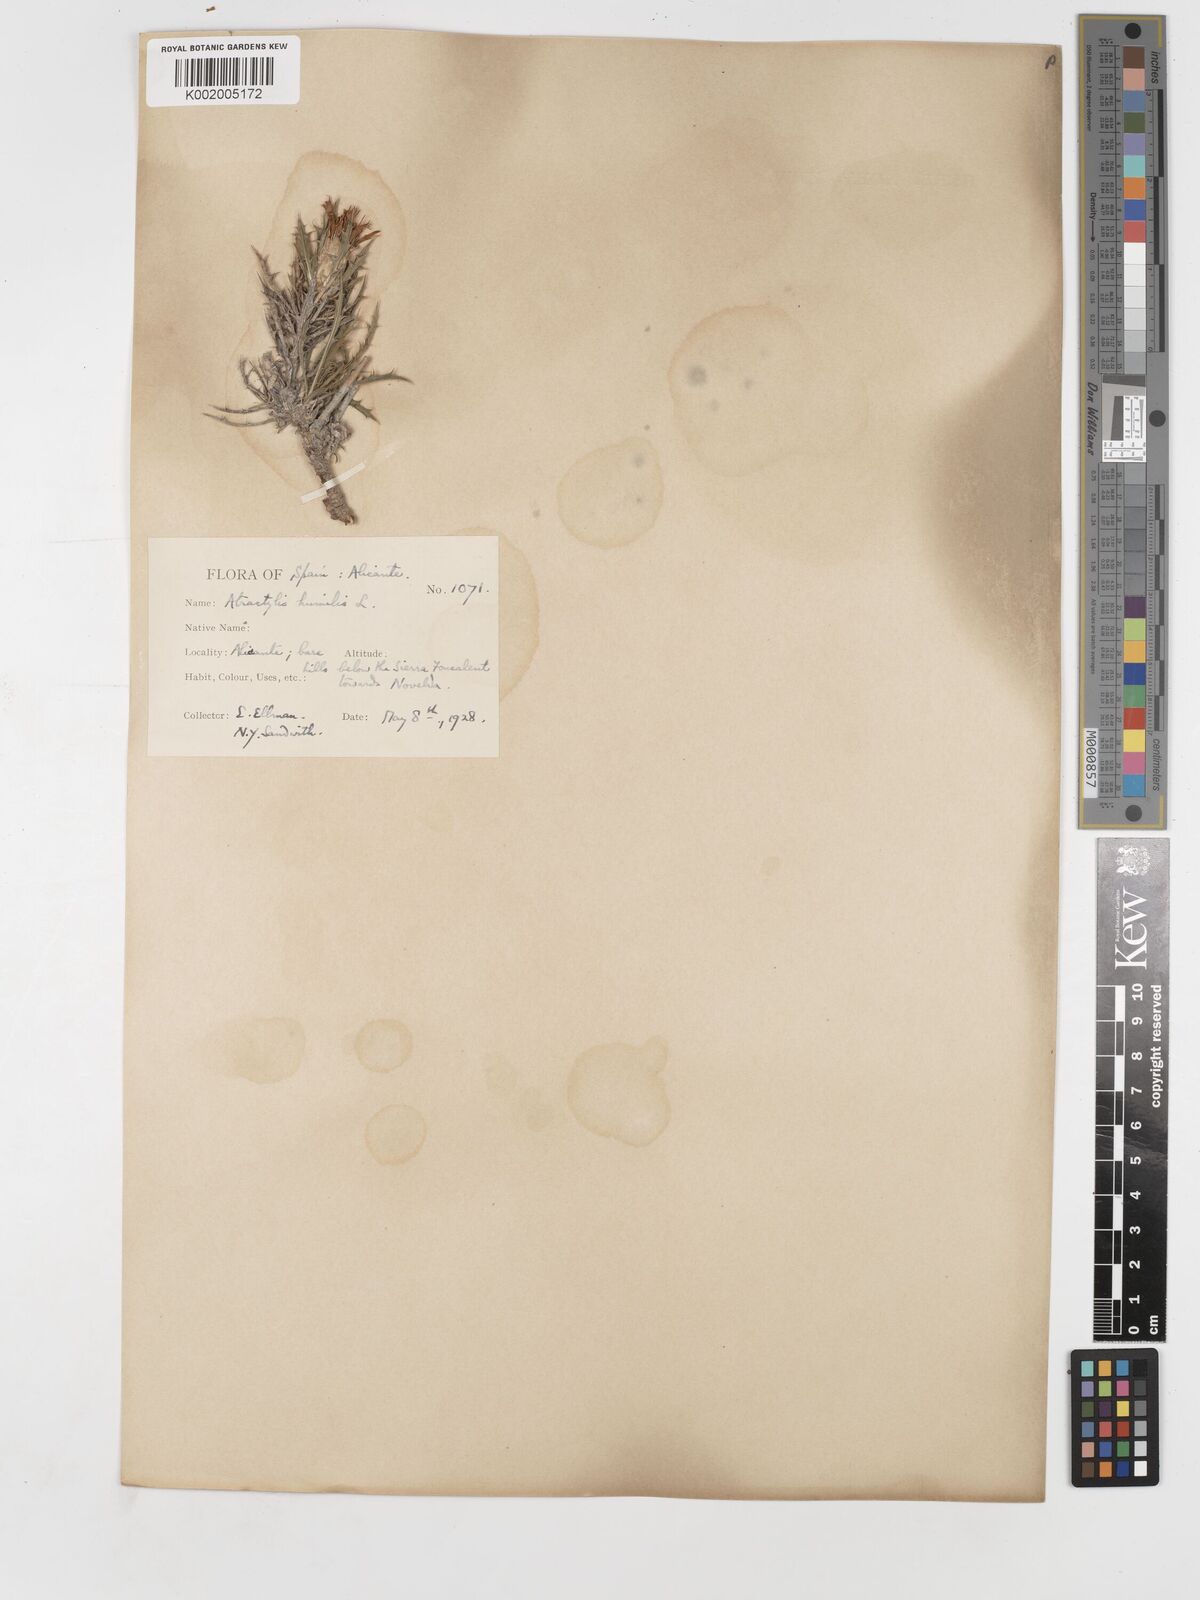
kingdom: Plantae
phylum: Tracheophyta
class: Magnoliopsida
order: Asterales
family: Asteraceae
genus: Atractylis
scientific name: Atractylis humilis
